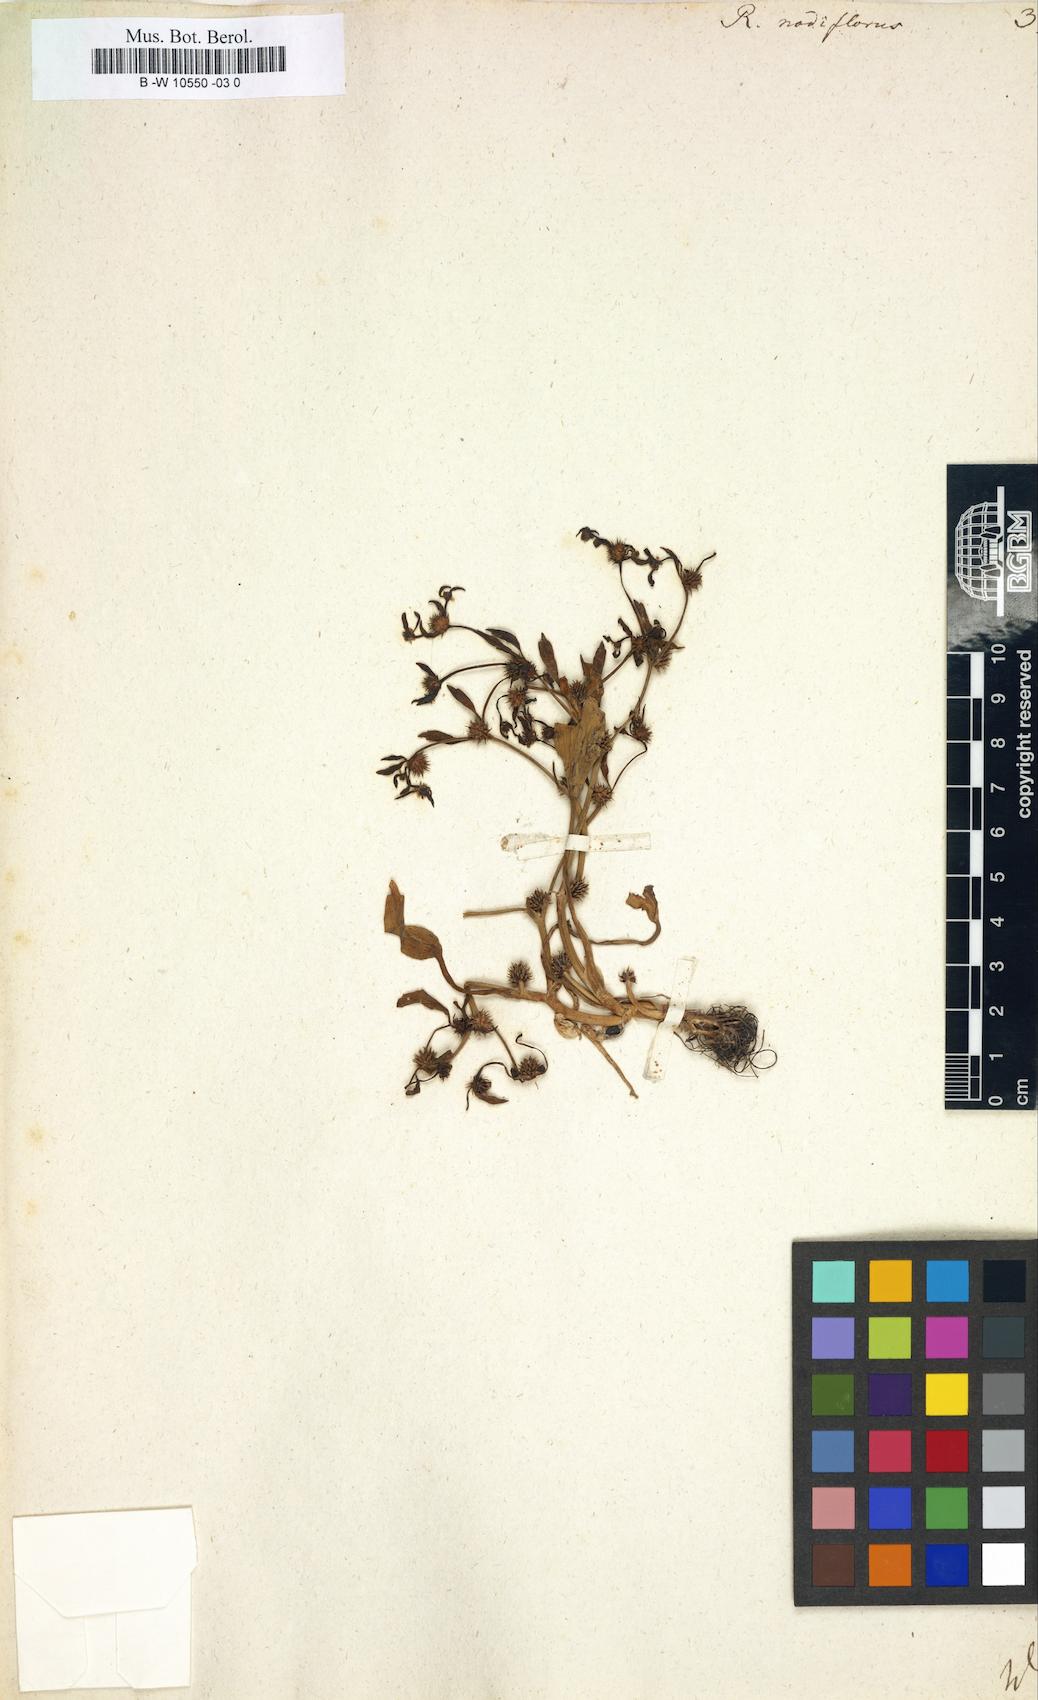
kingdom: Plantae
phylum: Tracheophyta
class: Magnoliopsida
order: Ranunculales
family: Ranunculaceae
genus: Ranunculus
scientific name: Ranunculus nodiflorus
